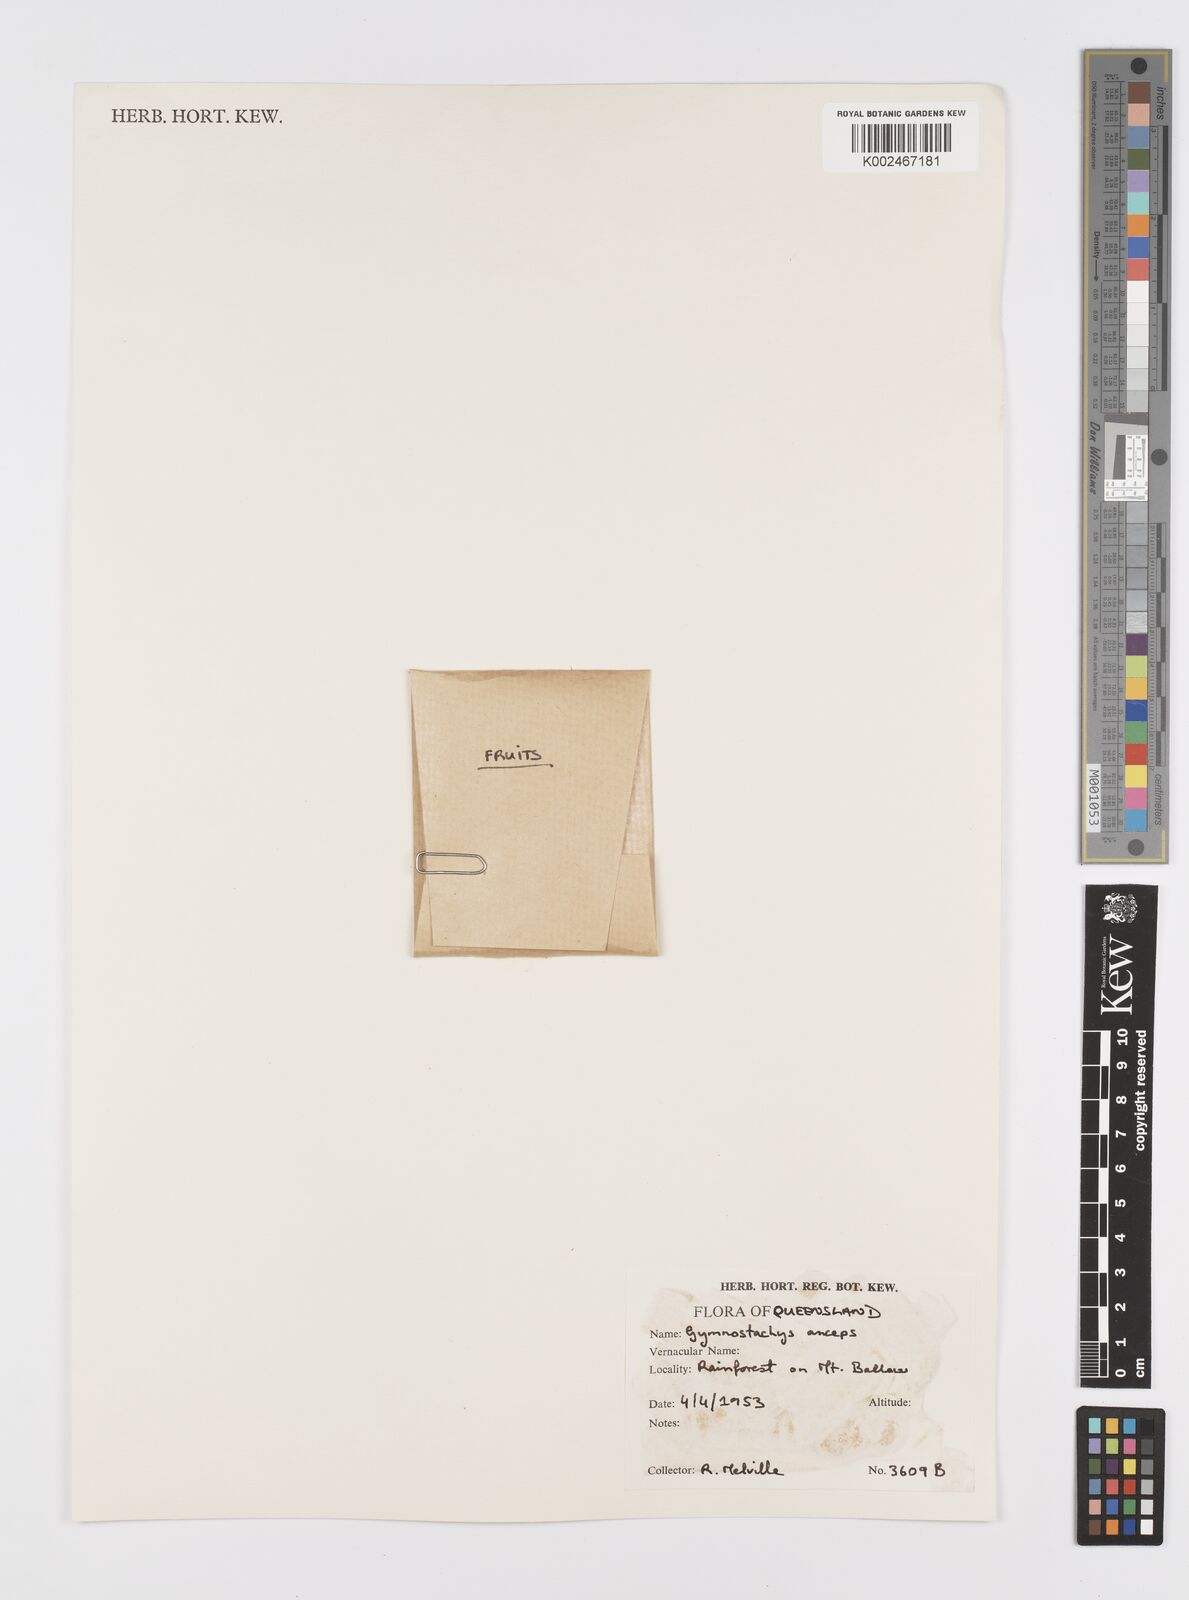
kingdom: Plantae
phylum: Tracheophyta
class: Liliopsida
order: Alismatales
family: Araceae
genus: Gymnostachys
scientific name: Gymnostachys anceps
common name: Settler's-flax
